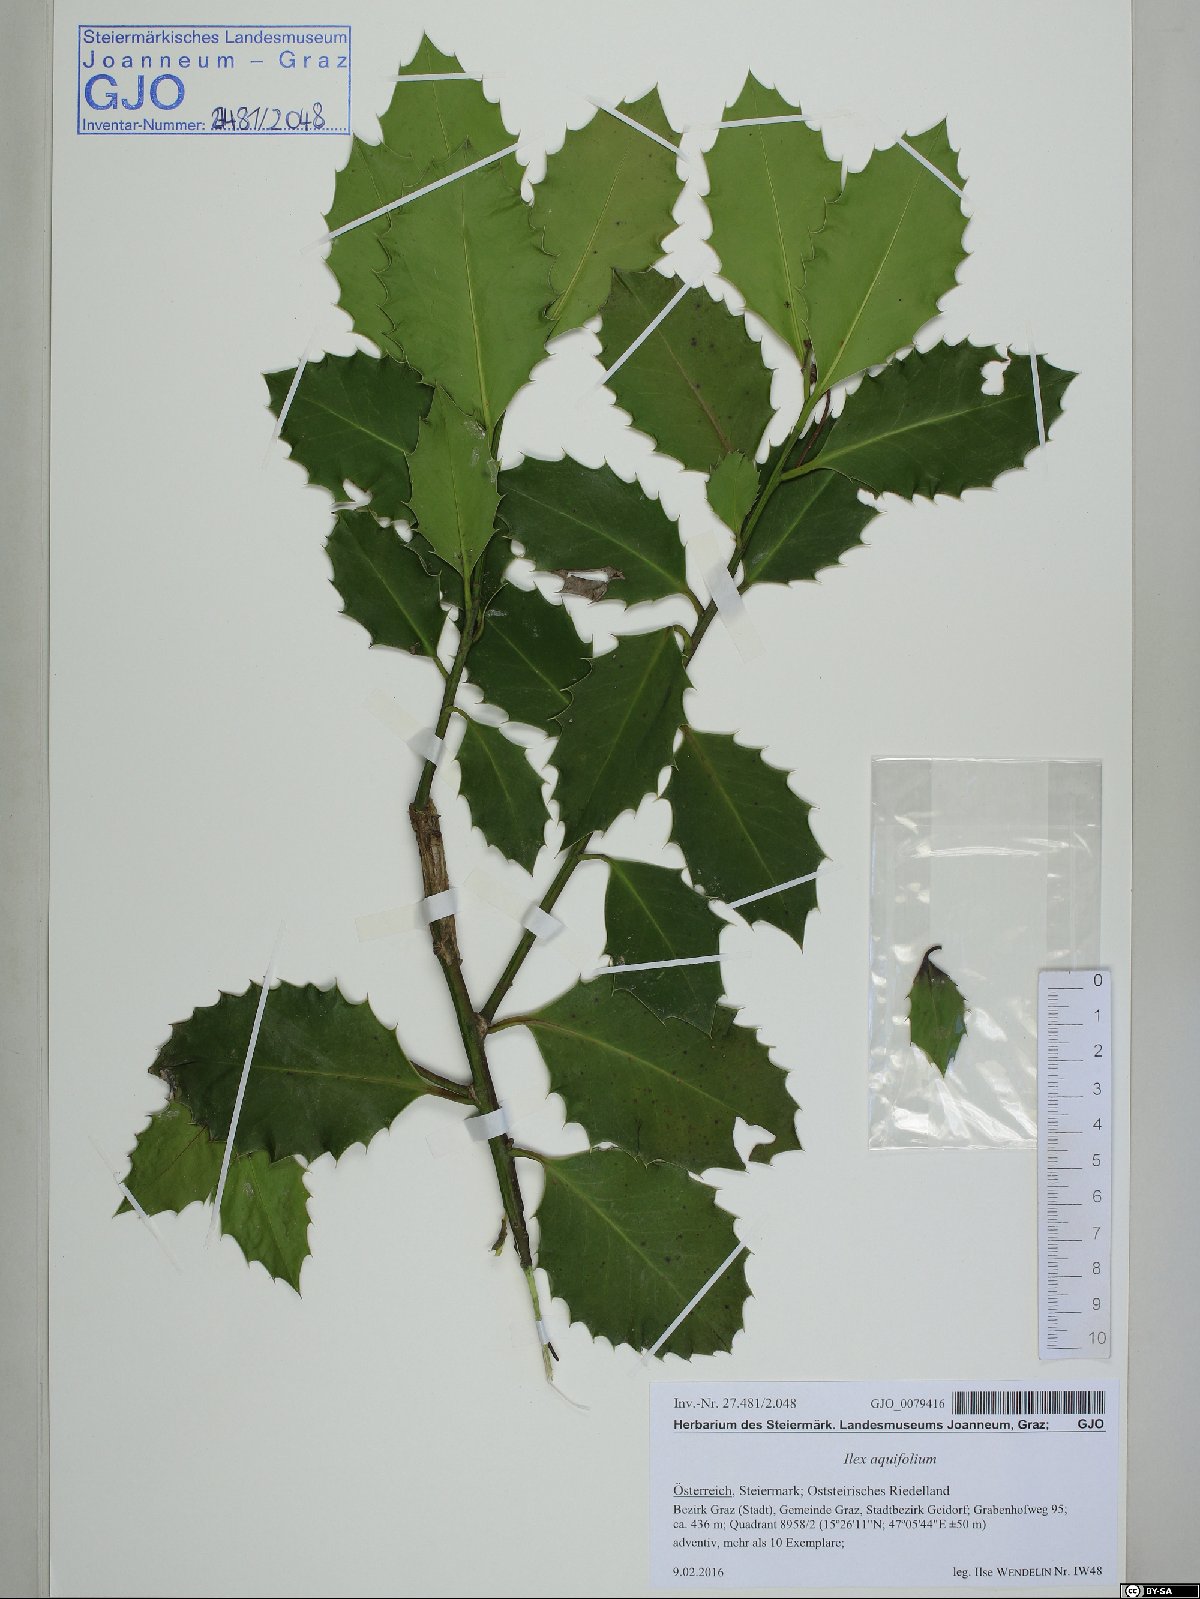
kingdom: Plantae
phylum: Tracheophyta
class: Magnoliopsida
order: Aquifoliales
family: Aquifoliaceae
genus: Ilex
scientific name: Ilex aquifolium
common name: English holly
